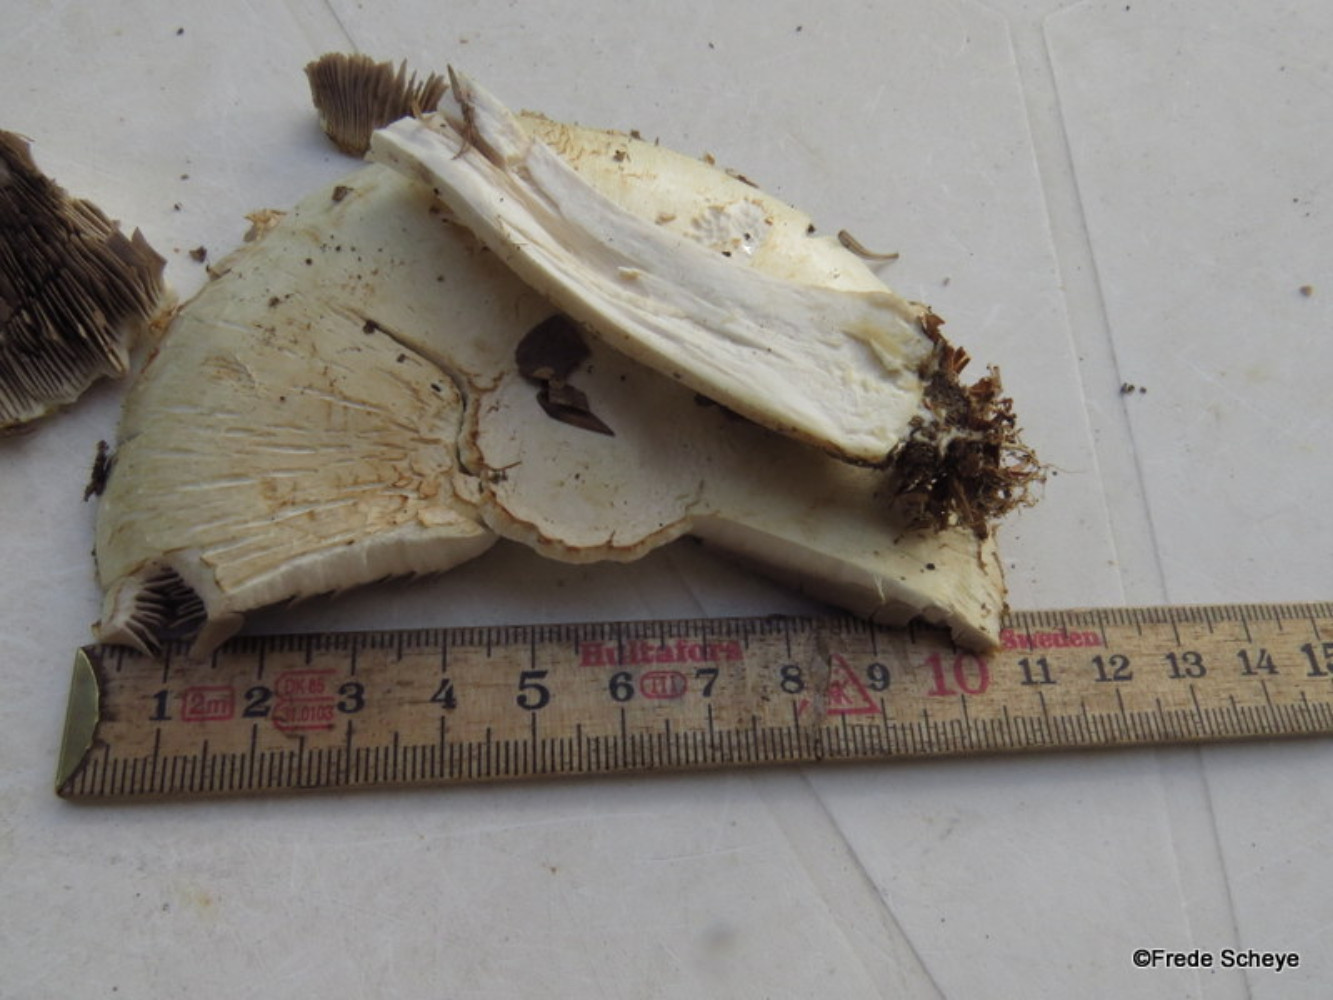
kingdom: Fungi
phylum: Basidiomycota
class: Agaricomycetes
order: Agaricales
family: Agaricaceae
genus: Agaricus
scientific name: Agaricus arvensis
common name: ager-champignon
